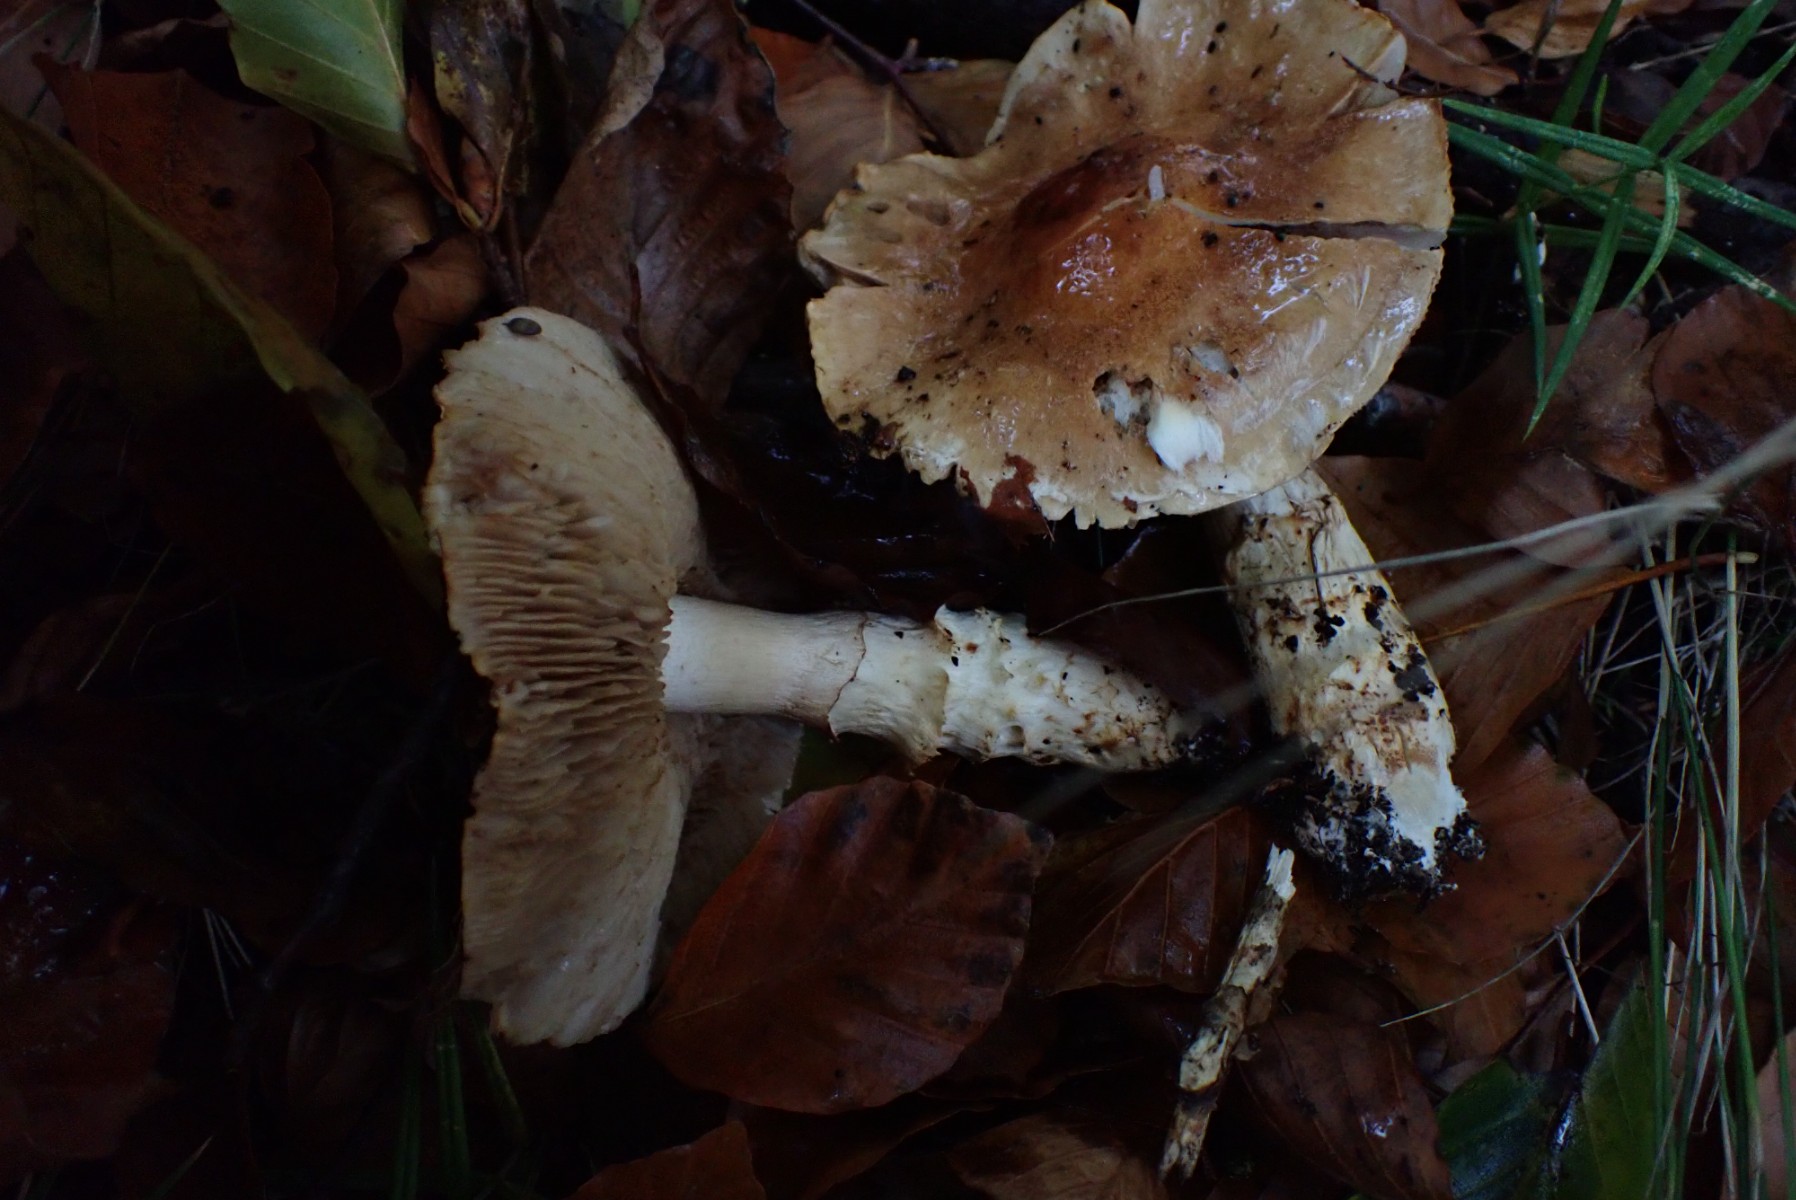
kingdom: Fungi
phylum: Basidiomycota
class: Agaricomycetes
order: Agaricales
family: Cortinariaceae
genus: Phlegmacium
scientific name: Phlegmacium vulpinum
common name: ringbæltet slørhat
